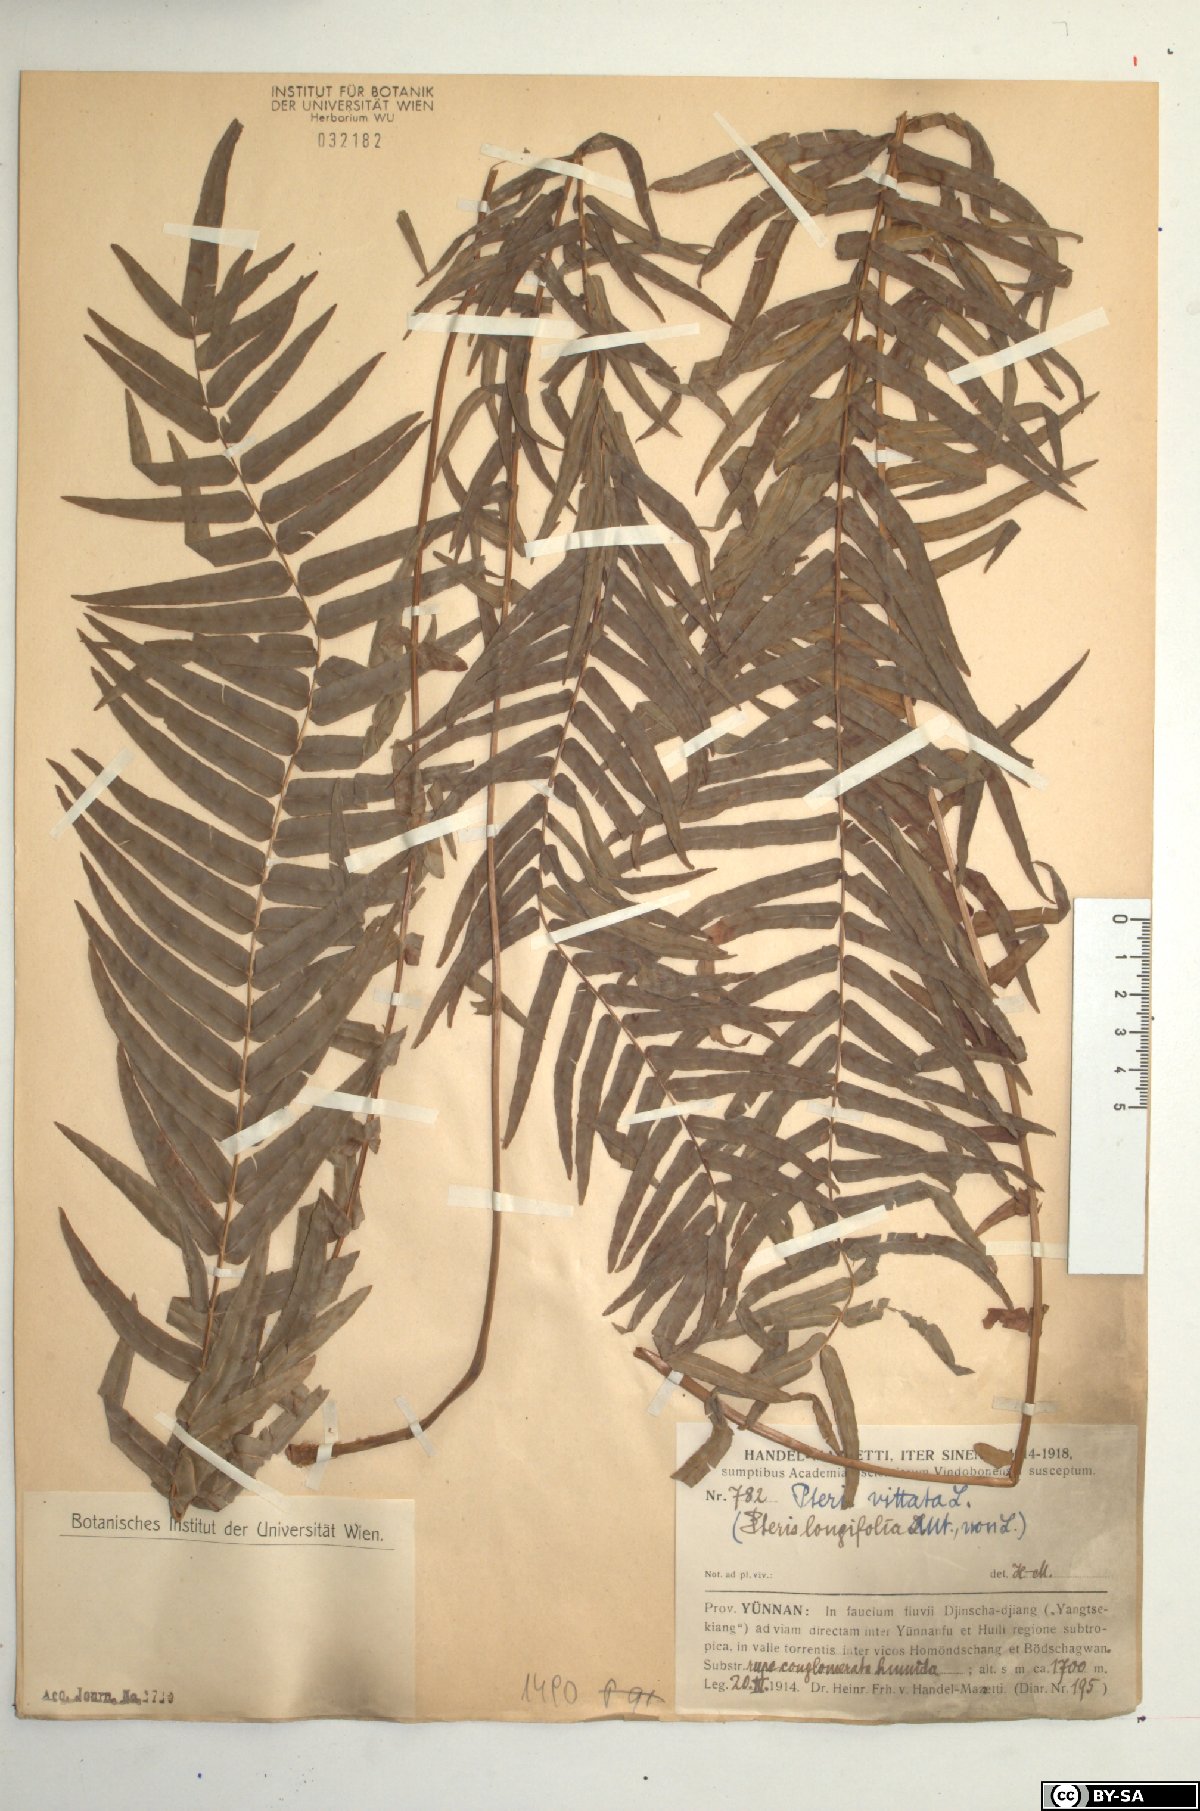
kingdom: Plantae
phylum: Tracheophyta
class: Polypodiopsida
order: Polypodiales
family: Pteridaceae
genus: Pteris
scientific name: Pteris vittata
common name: Ladder brake
